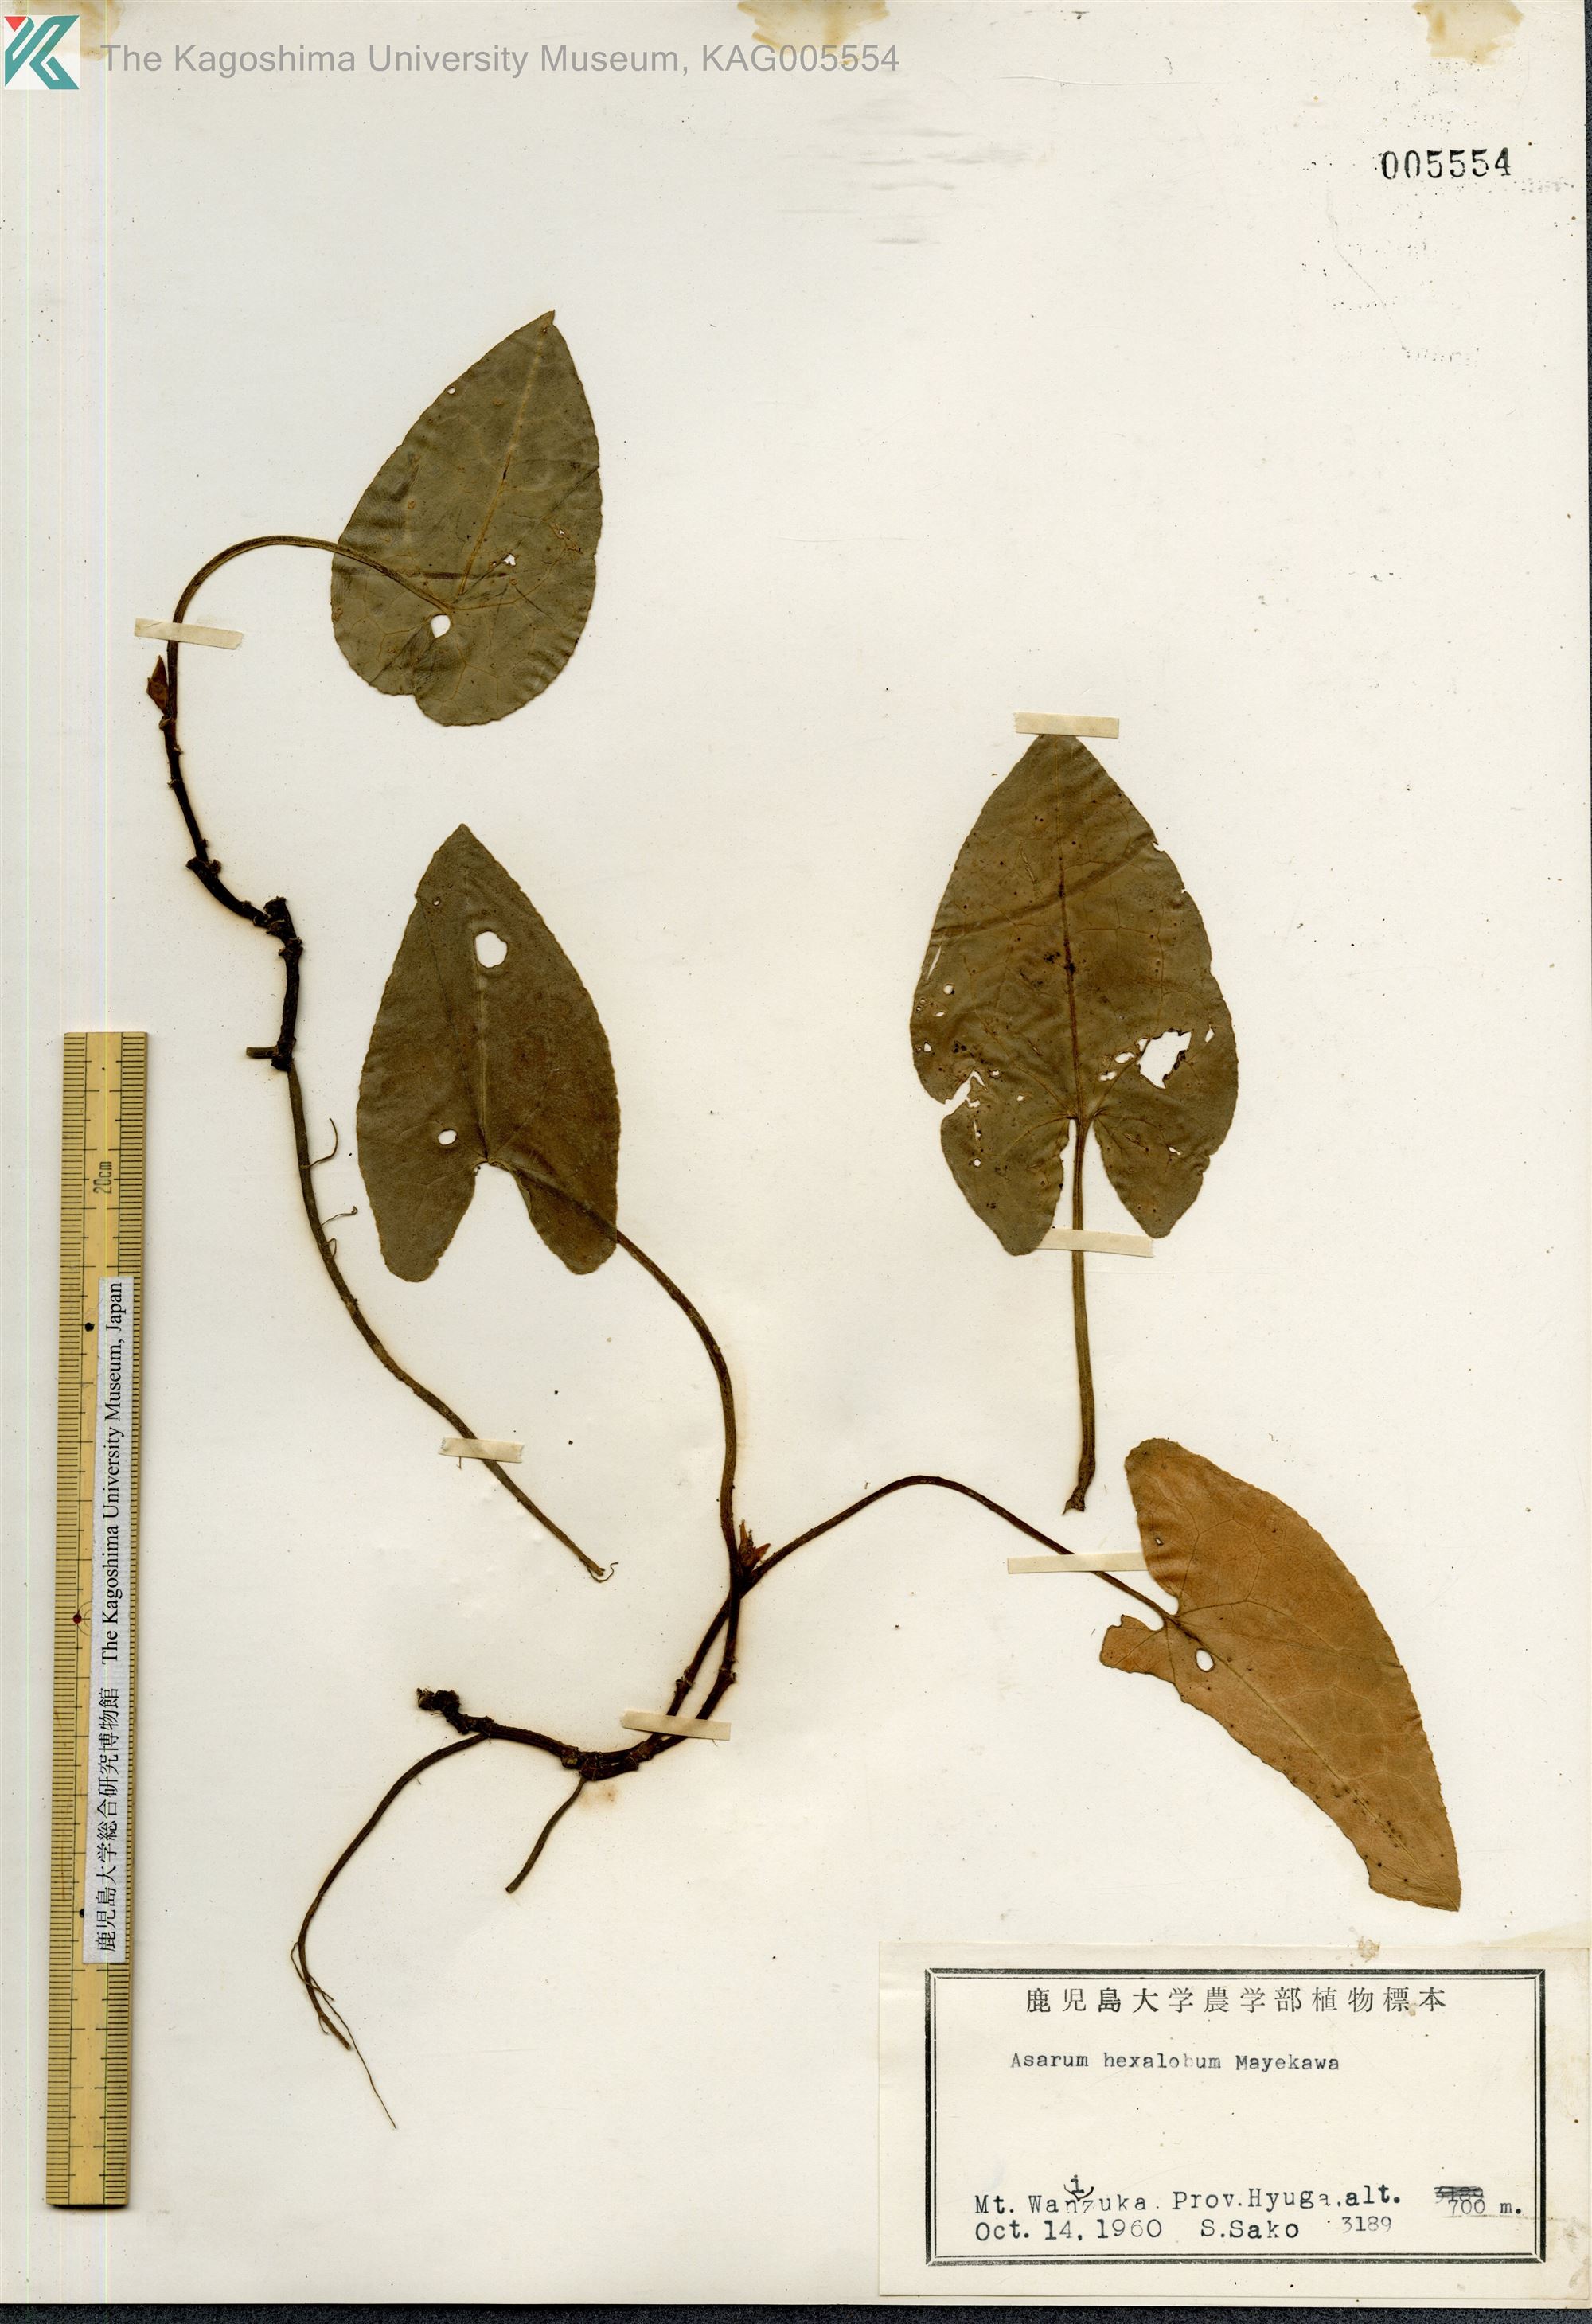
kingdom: Plantae
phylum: Tracheophyta
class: Magnoliopsida
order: Piperales
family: Aristolochiaceae
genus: Asarum
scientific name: Asarum hexalobum
